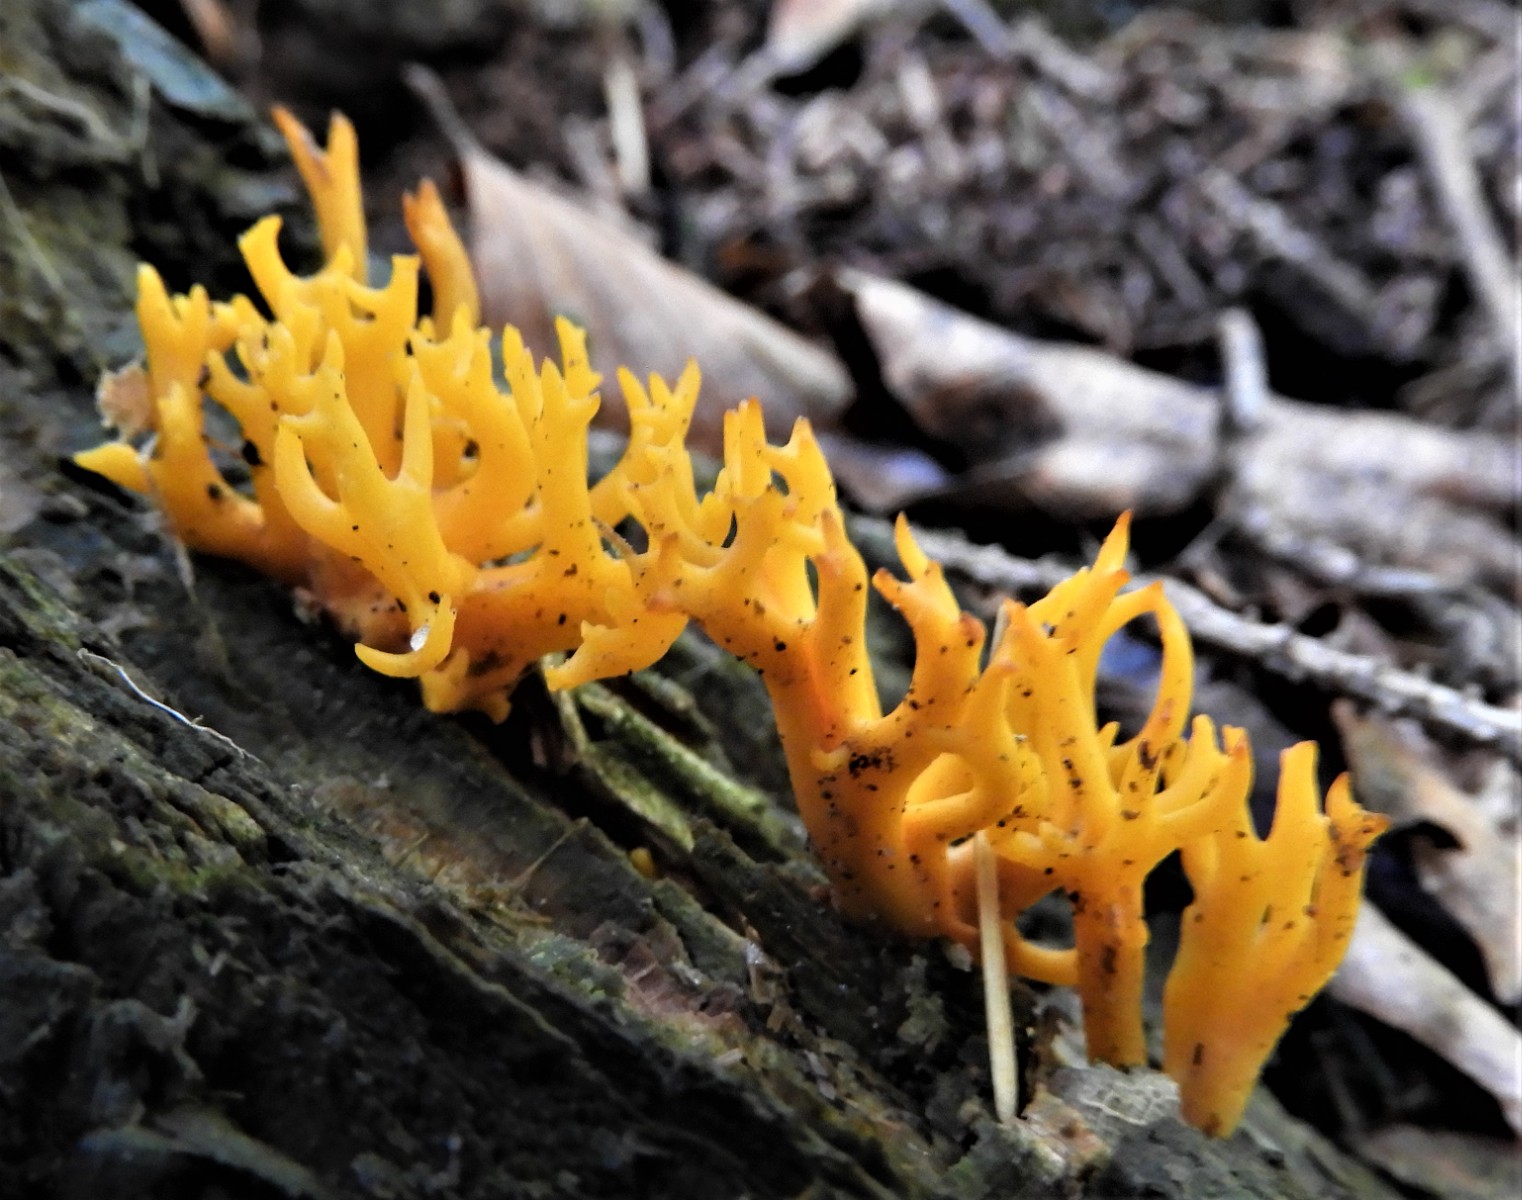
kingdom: Fungi
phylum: Basidiomycota
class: Dacrymycetes
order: Dacrymycetales
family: Dacrymycetaceae
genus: Calocera
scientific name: Calocera viscosa
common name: almindelig guldgaffel
